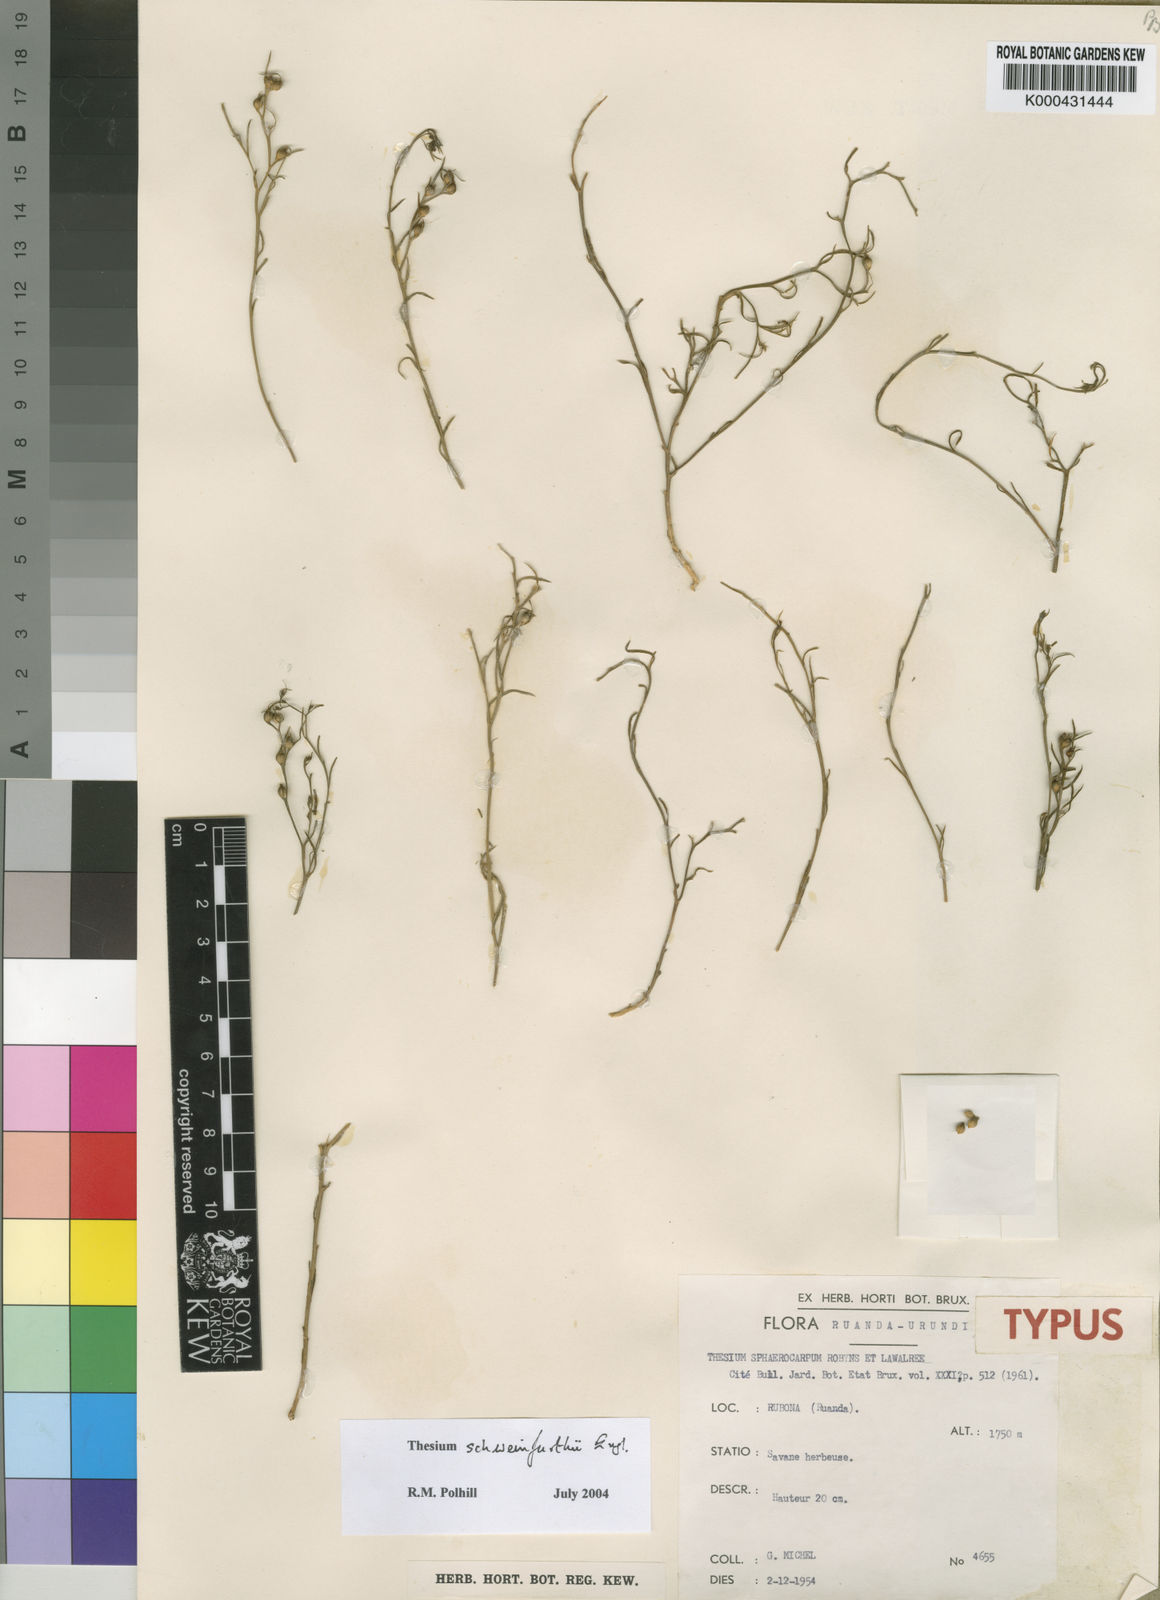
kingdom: Plantae
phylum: Tracheophyta
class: Magnoliopsida
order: Santalales
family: Thesiaceae
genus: Thesium
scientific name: Thesium schweinfurthii
